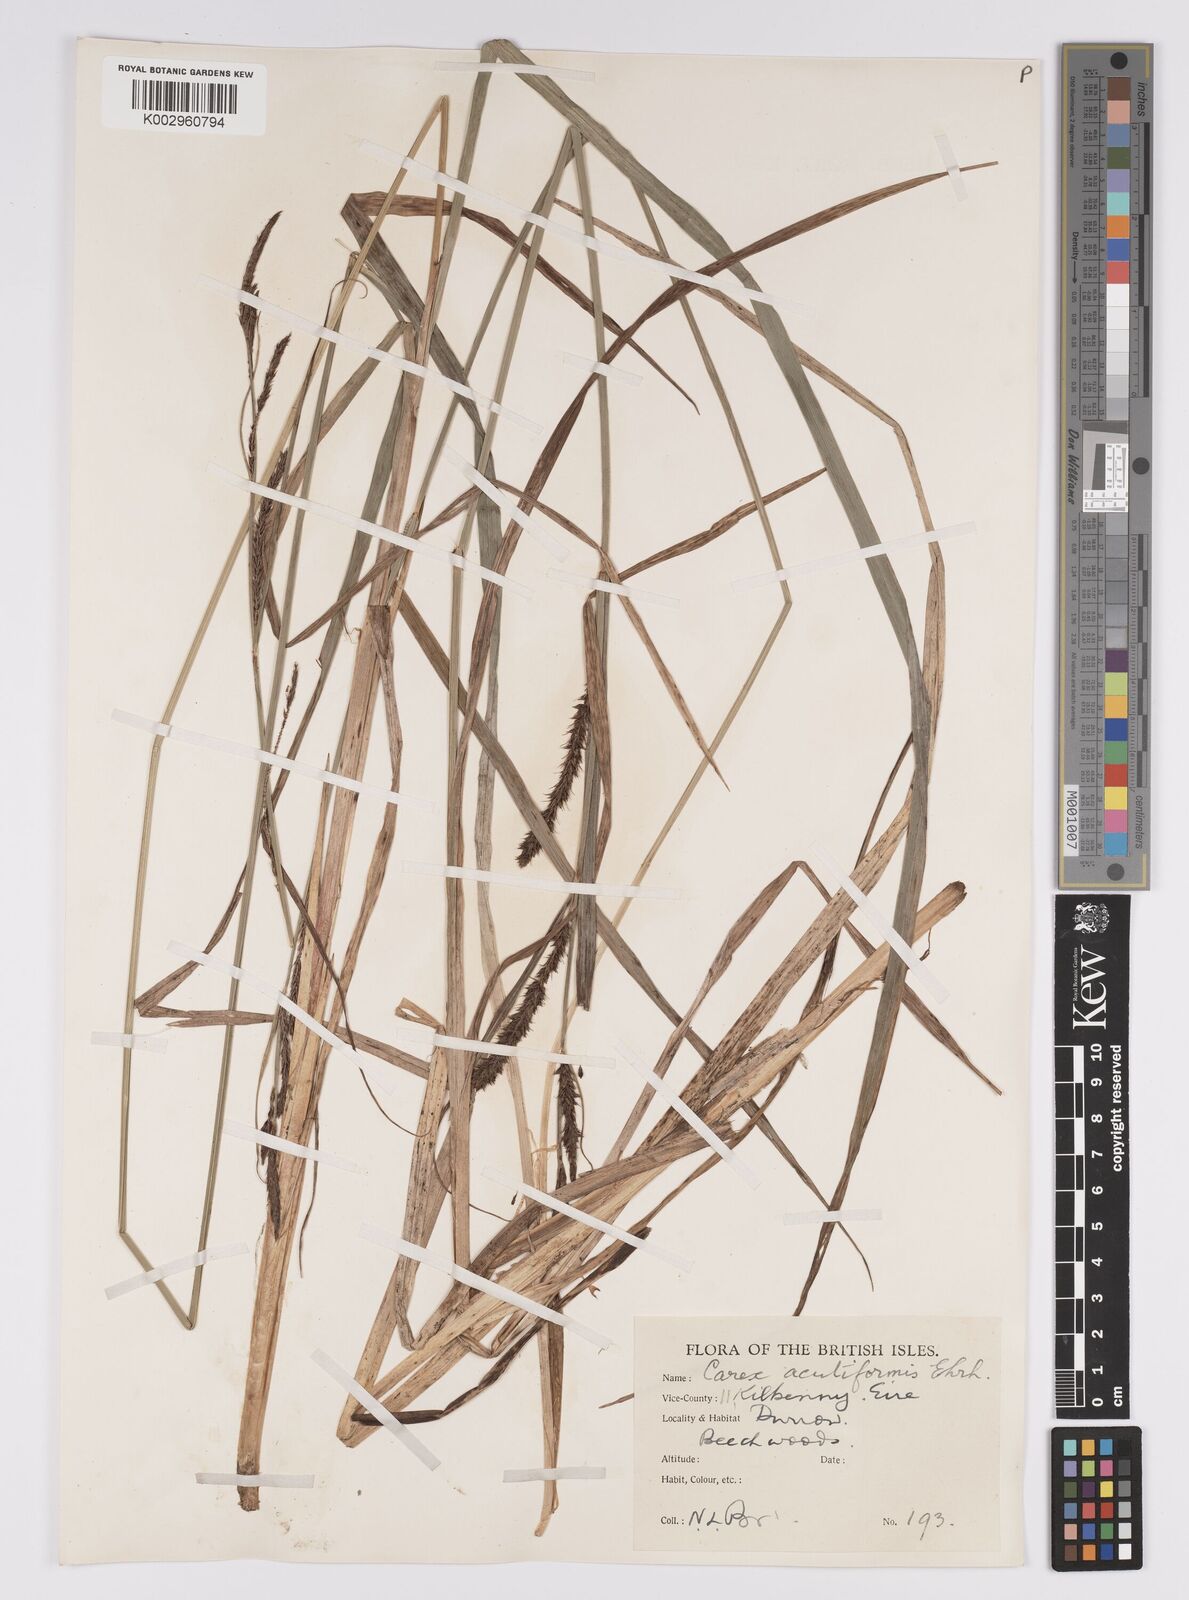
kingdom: Plantae
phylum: Tracheophyta
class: Liliopsida
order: Poales
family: Cyperaceae
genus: Carex
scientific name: Carex acutiformis
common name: Lesser pond-sedge
